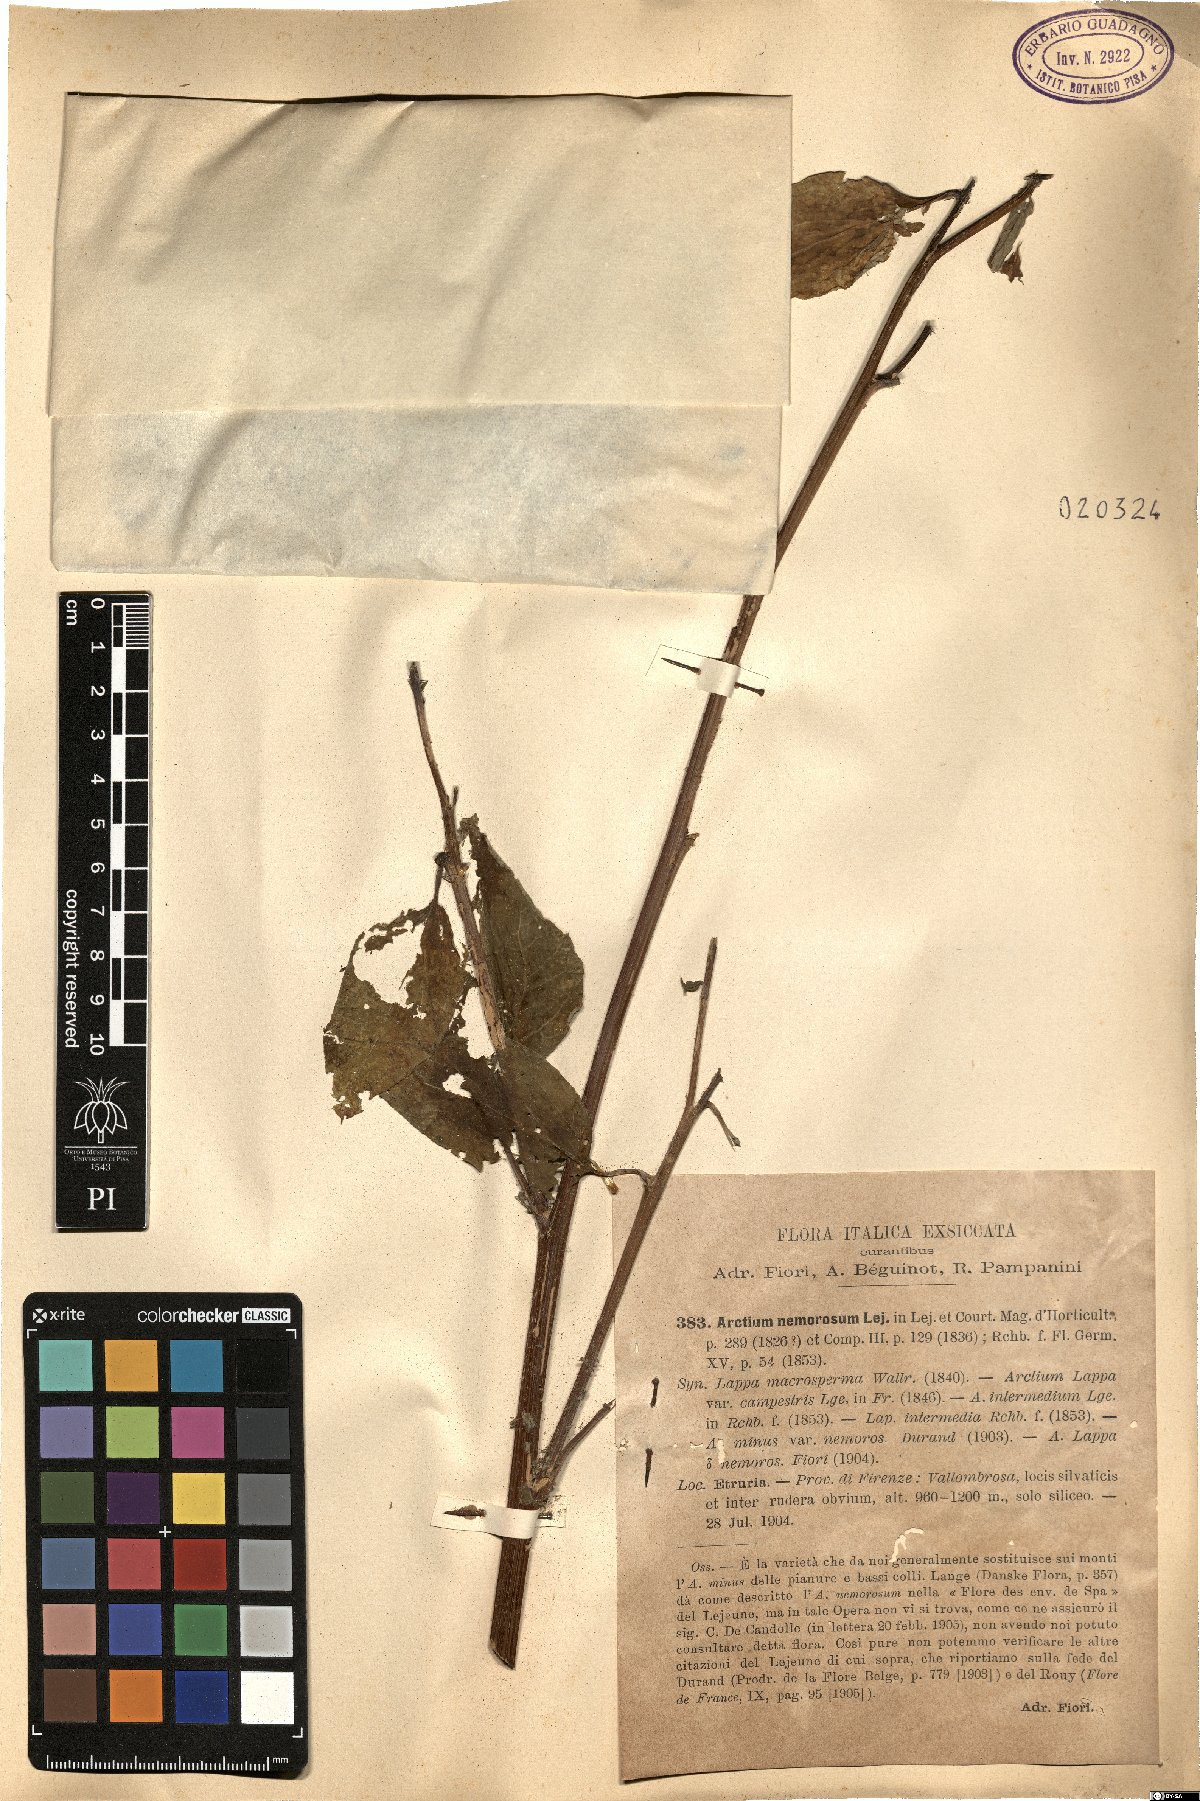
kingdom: Plantae
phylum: Tracheophyta
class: Magnoliopsida
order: Asterales
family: Asteraceae
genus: Arctium
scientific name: Arctium nemorosum
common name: Wood burdock
